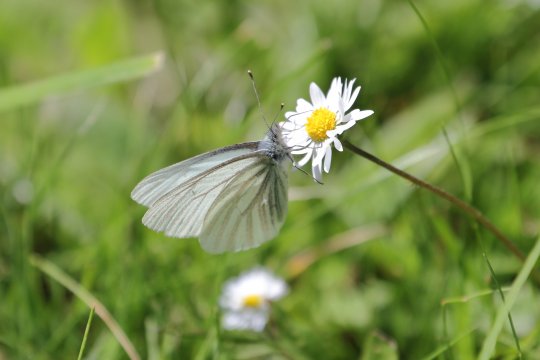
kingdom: Animalia
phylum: Arthropoda
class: Insecta
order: Lepidoptera
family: Pieridae
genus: Pieris
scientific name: Pieris marginalis
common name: Margined White
